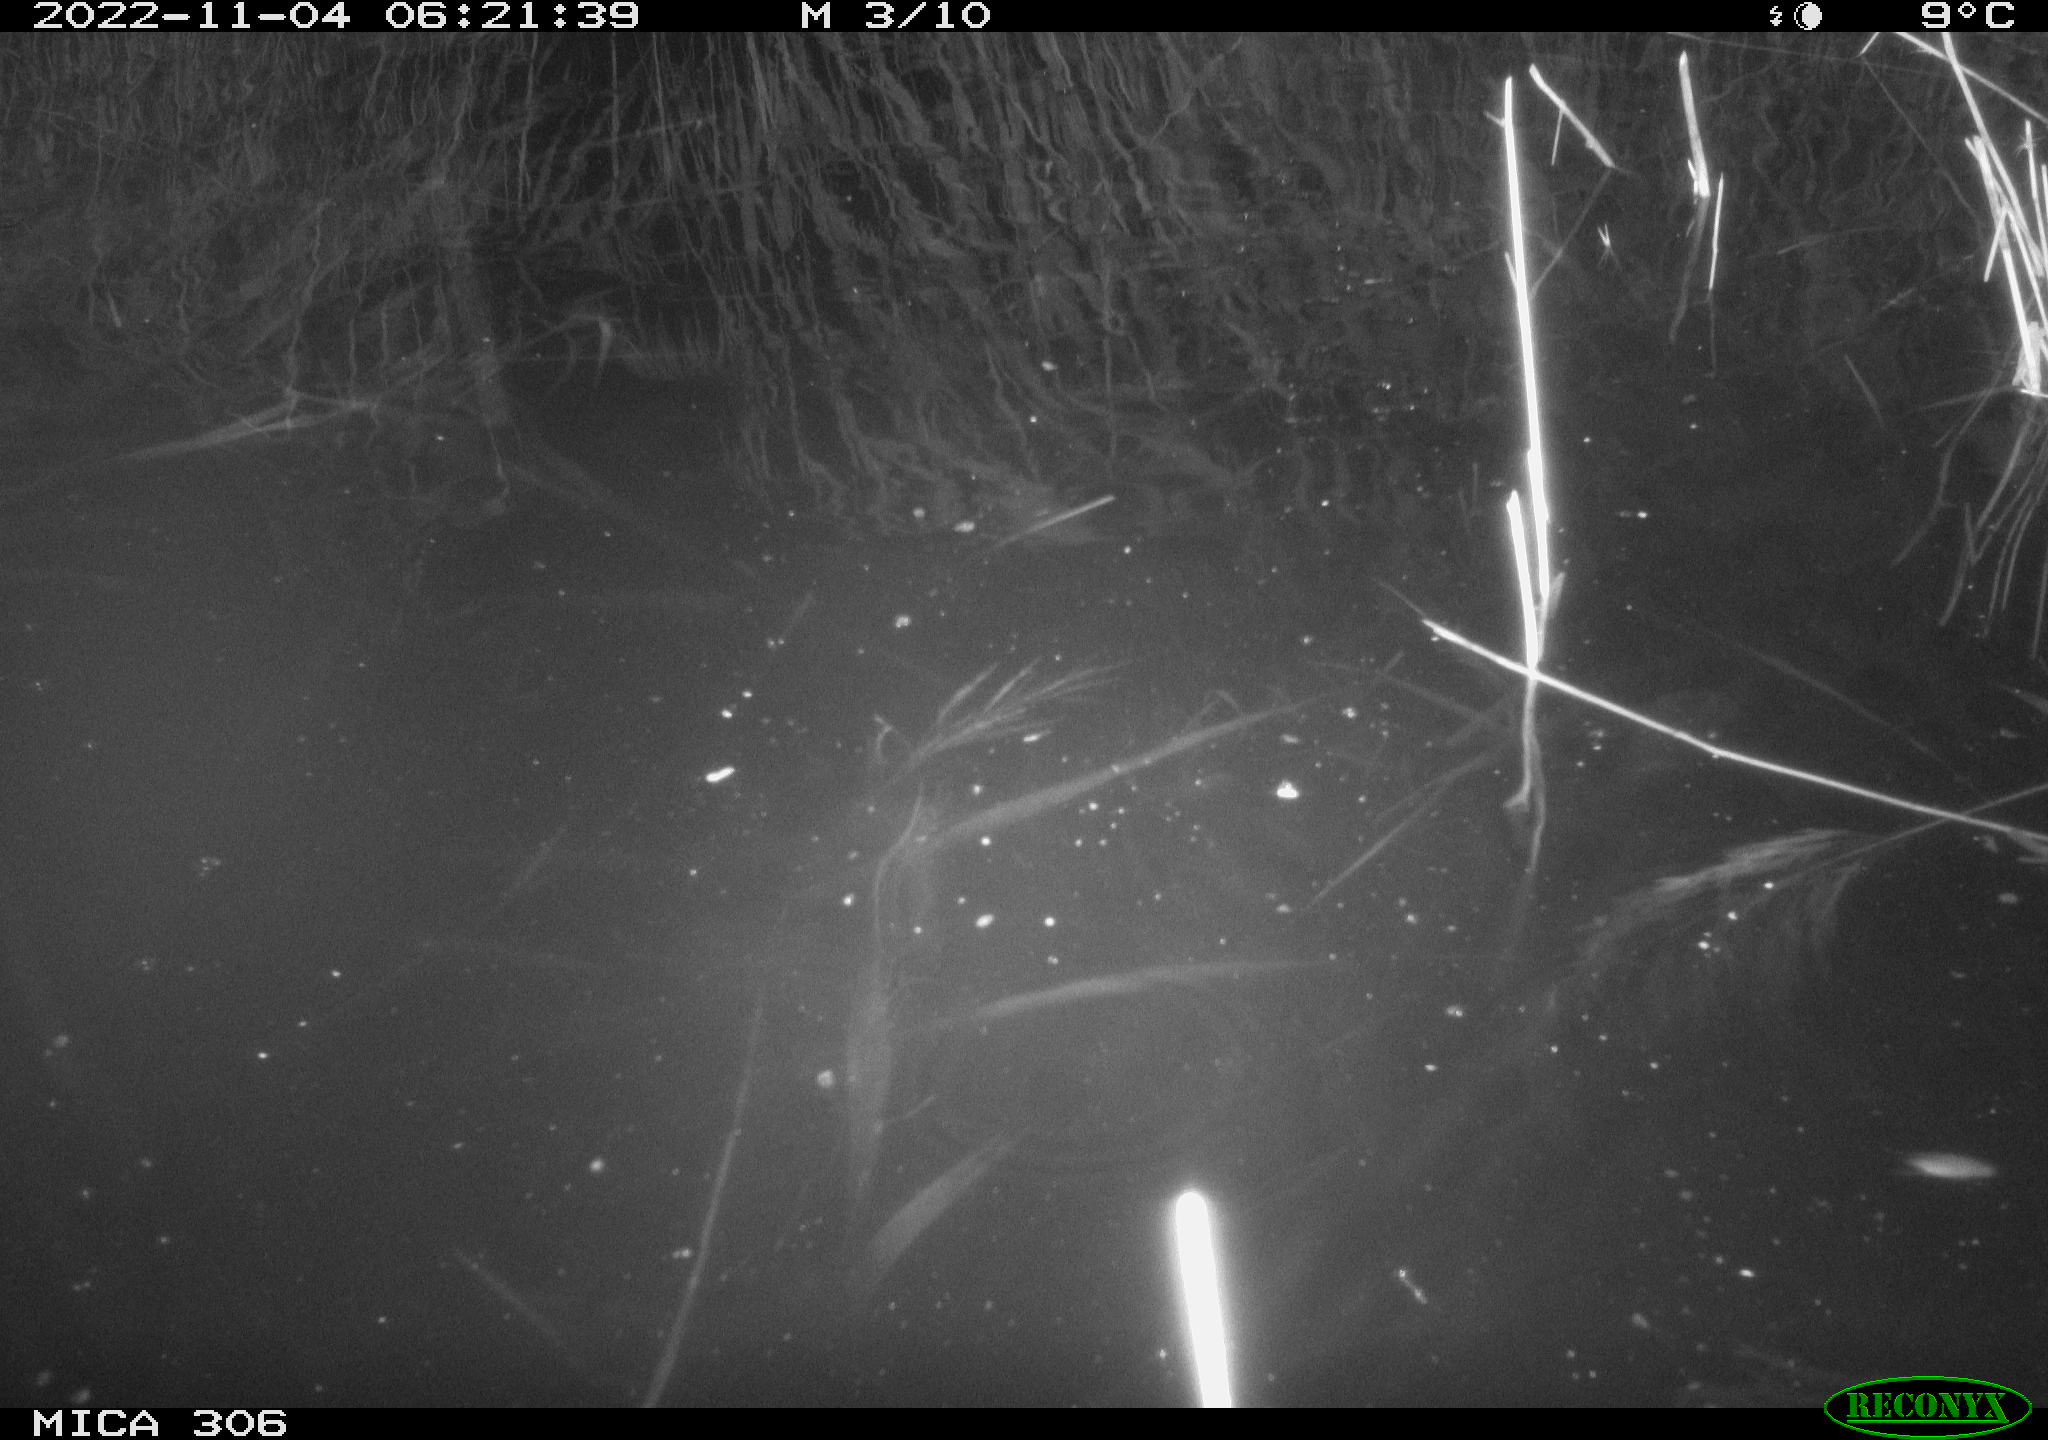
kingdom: Animalia
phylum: Chordata
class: Mammalia
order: Rodentia
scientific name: Rodentia
